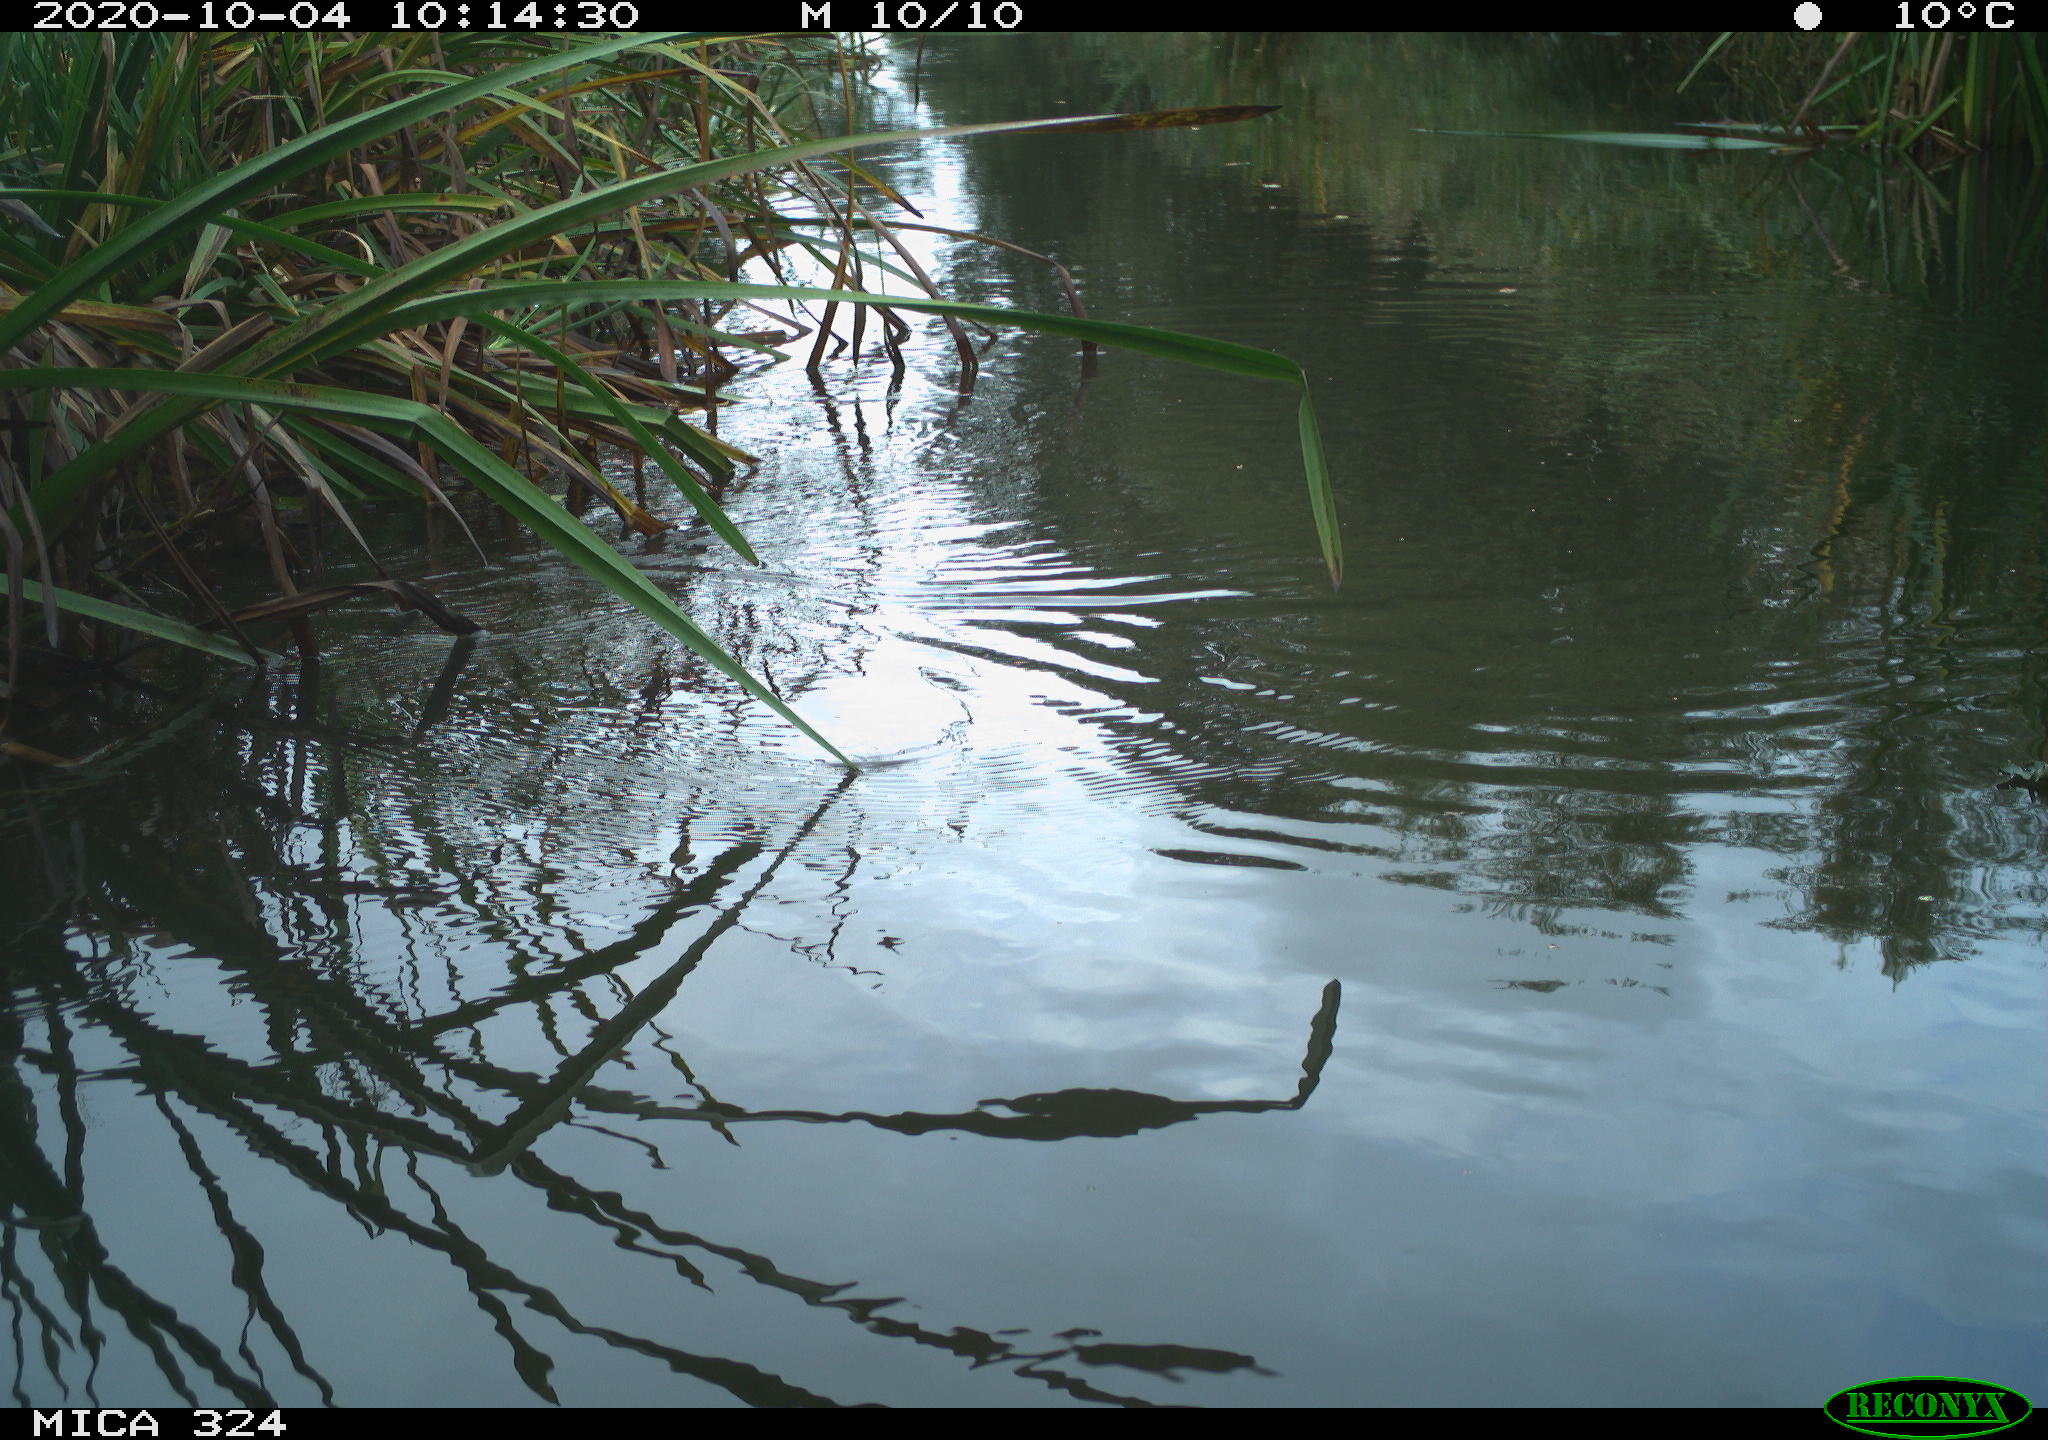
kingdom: Animalia
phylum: Chordata
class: Aves
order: Gruiformes
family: Rallidae
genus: Gallinula
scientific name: Gallinula chloropus
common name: Common moorhen
